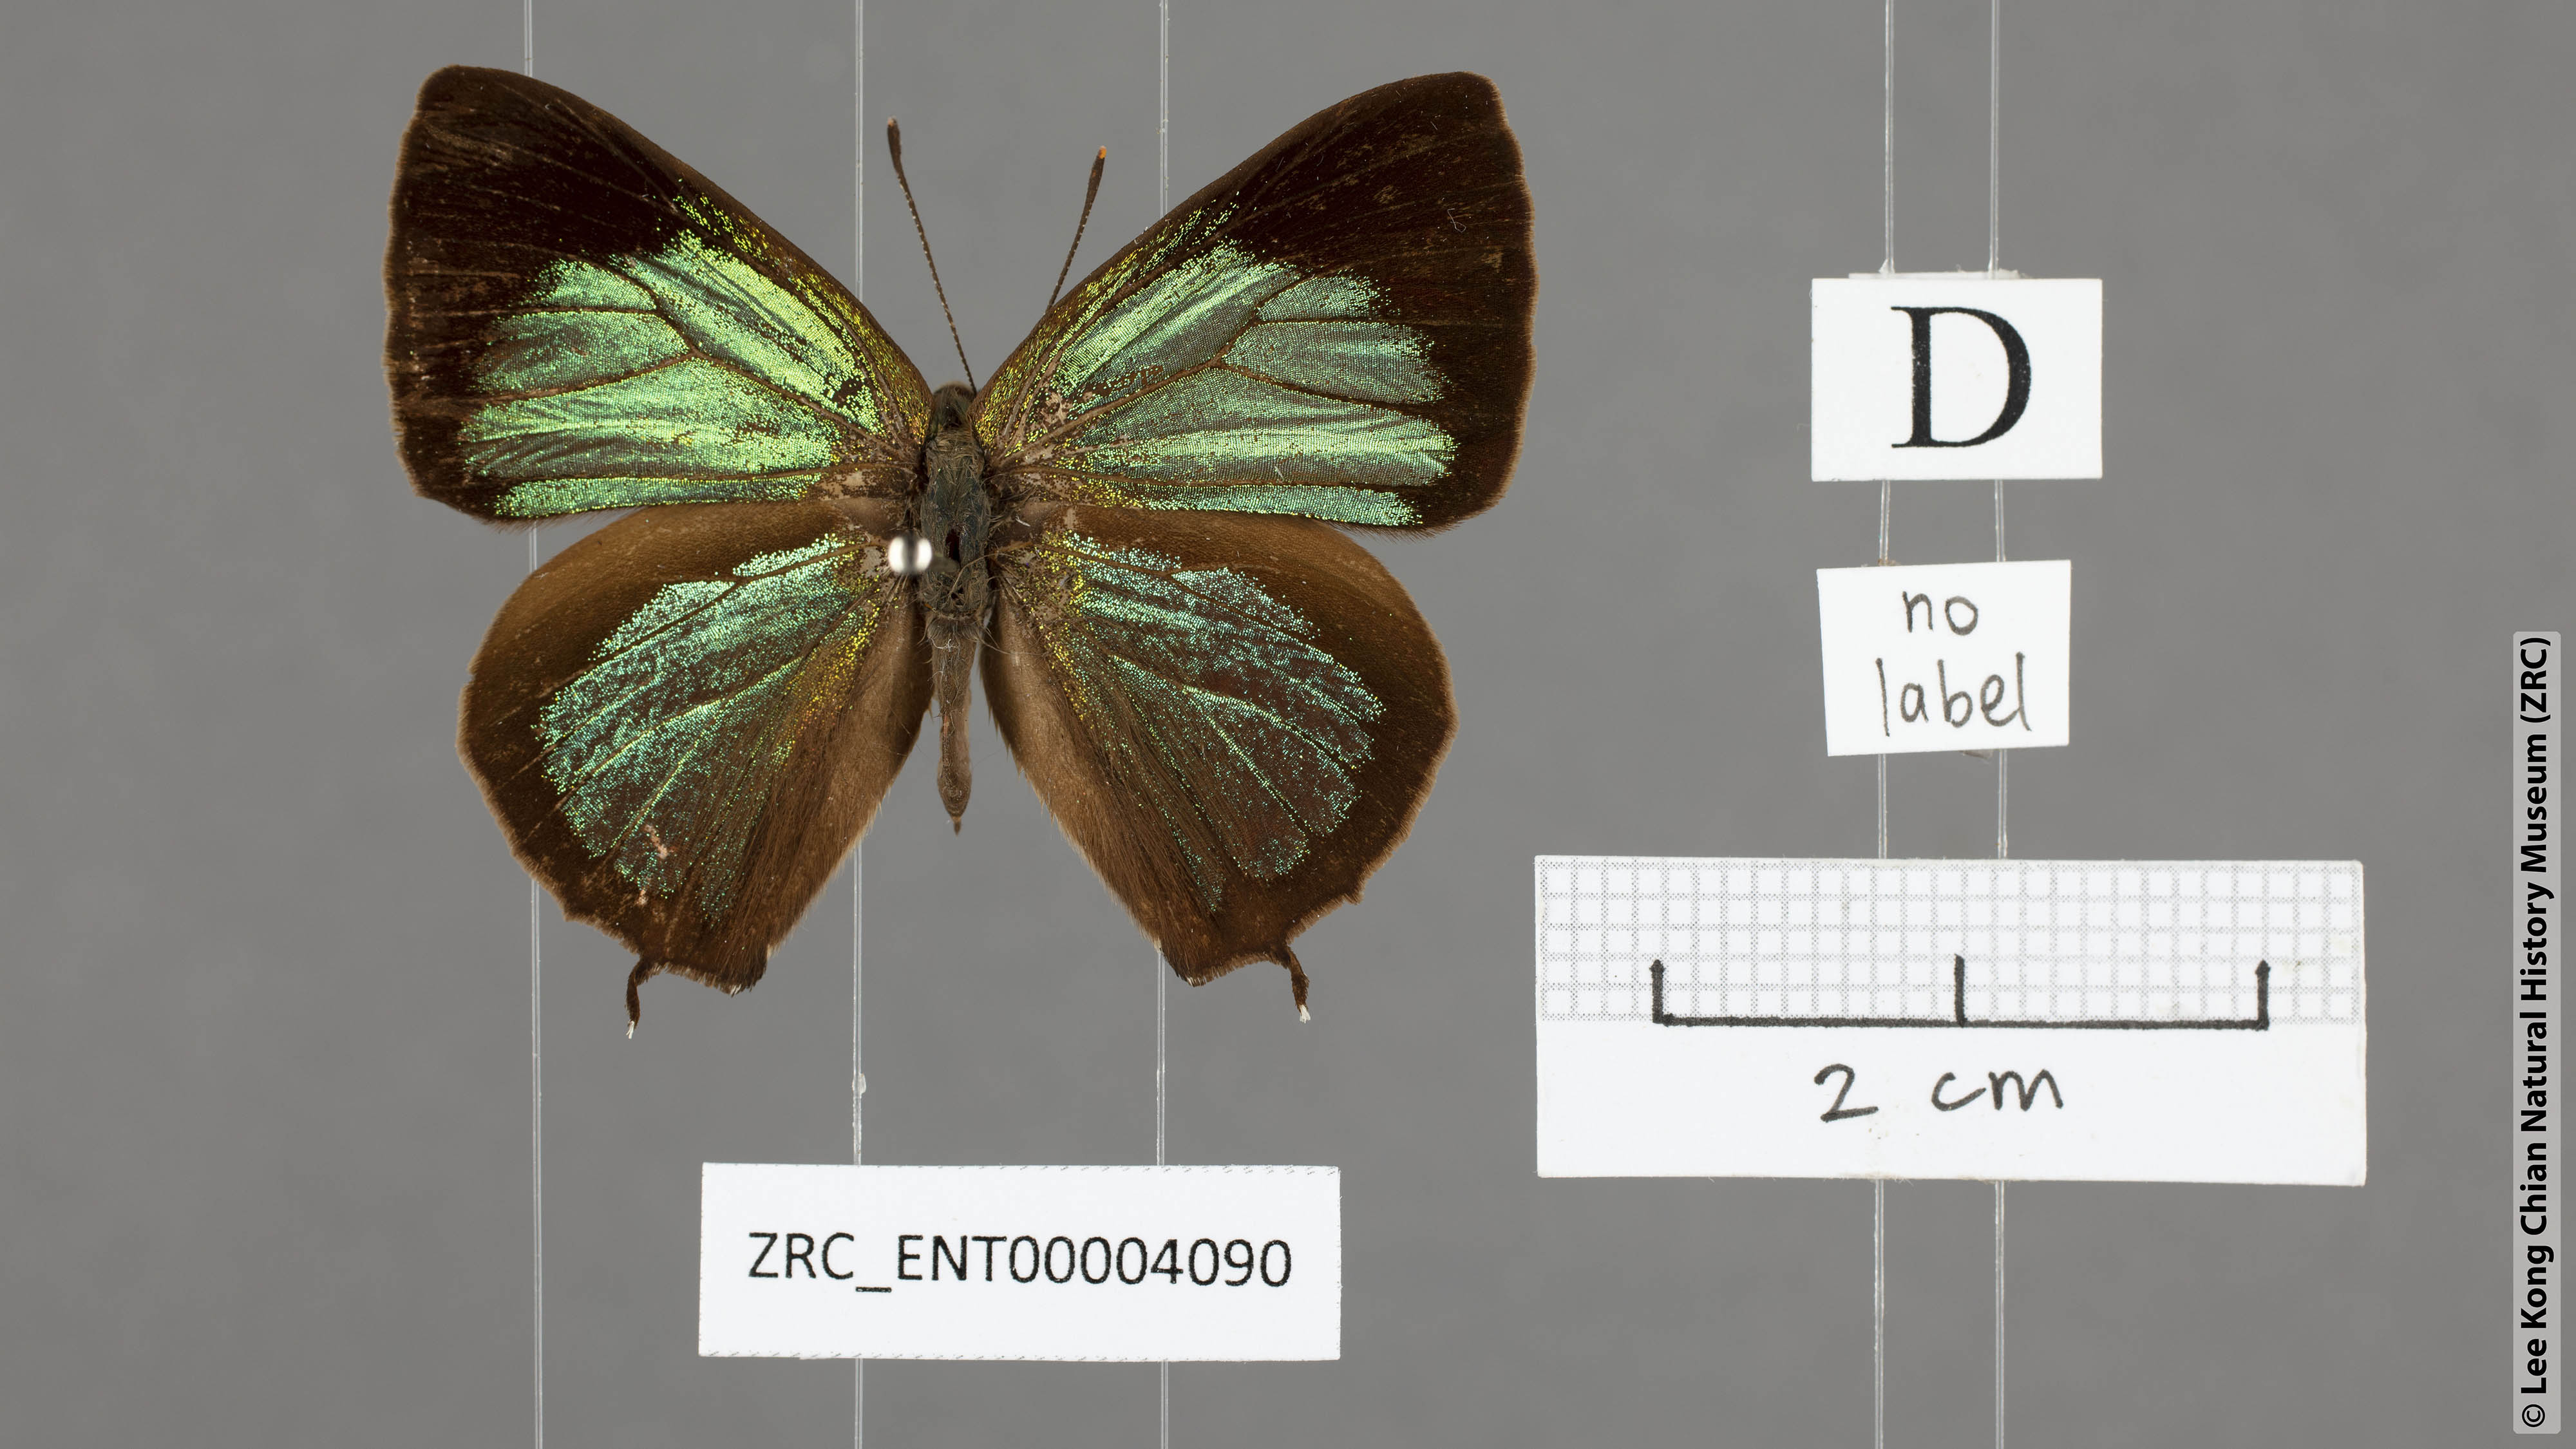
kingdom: Animalia
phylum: Arthropoda
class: Insecta
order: Lepidoptera
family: Lycaenidae
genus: Austrozephyrus
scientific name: Austrozephyrus absolon
